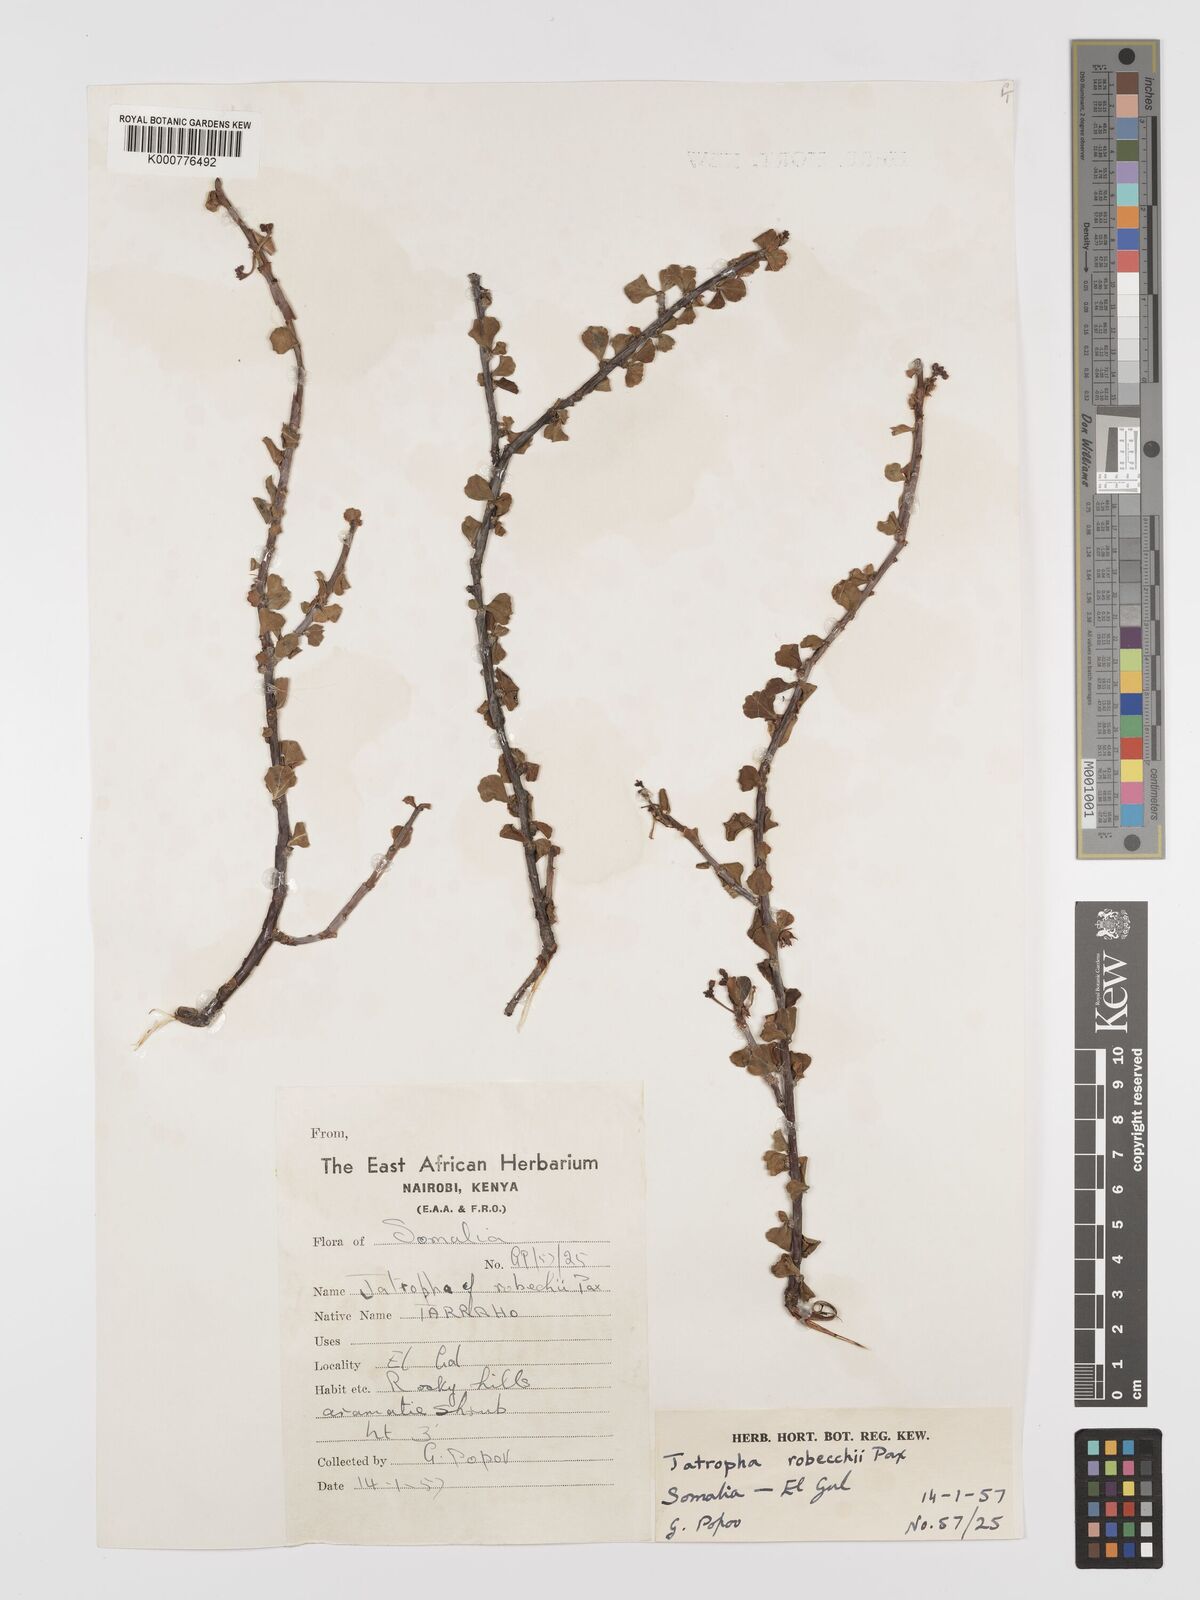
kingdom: Plantae
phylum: Tracheophyta
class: Magnoliopsida
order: Malpighiales
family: Euphorbiaceae
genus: Jatropha
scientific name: Jatropha robecchii
